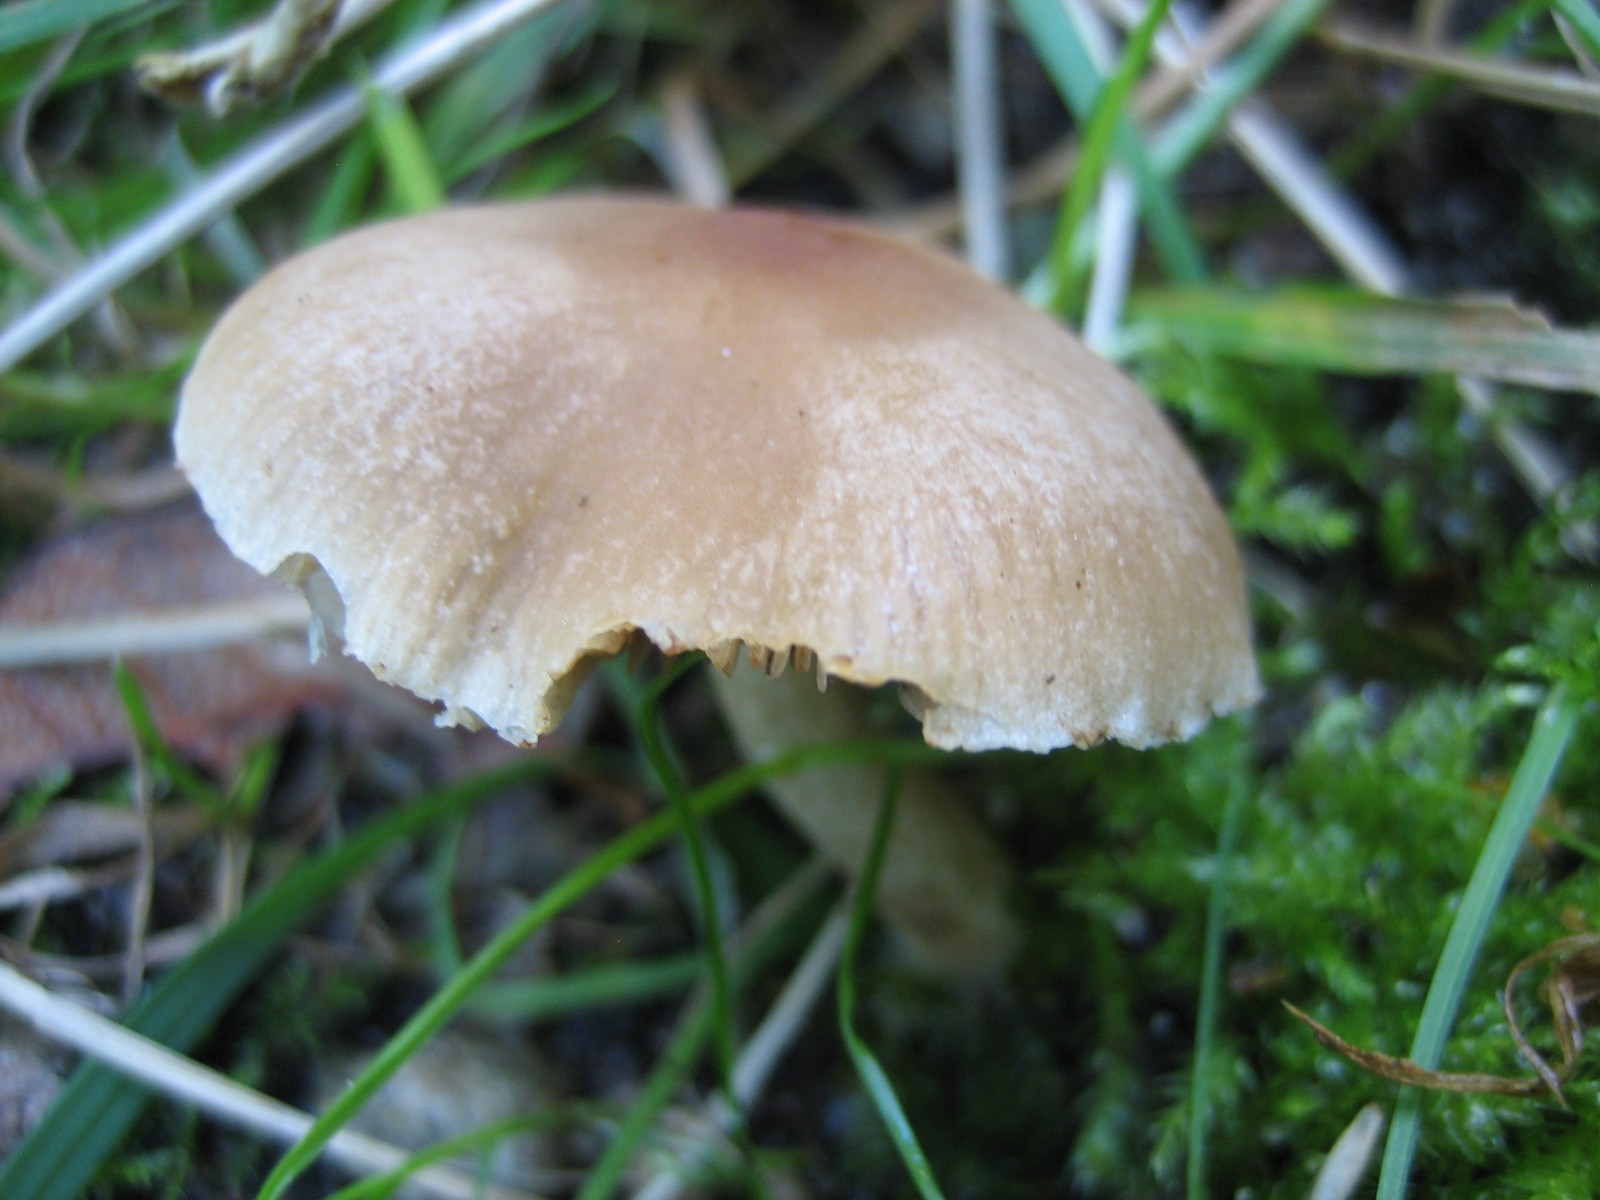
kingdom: Fungi
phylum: Basidiomycota
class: Agaricomycetes
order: Agaricales
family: Psathyrellaceae
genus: Psathyrella
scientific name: Psathyrella
